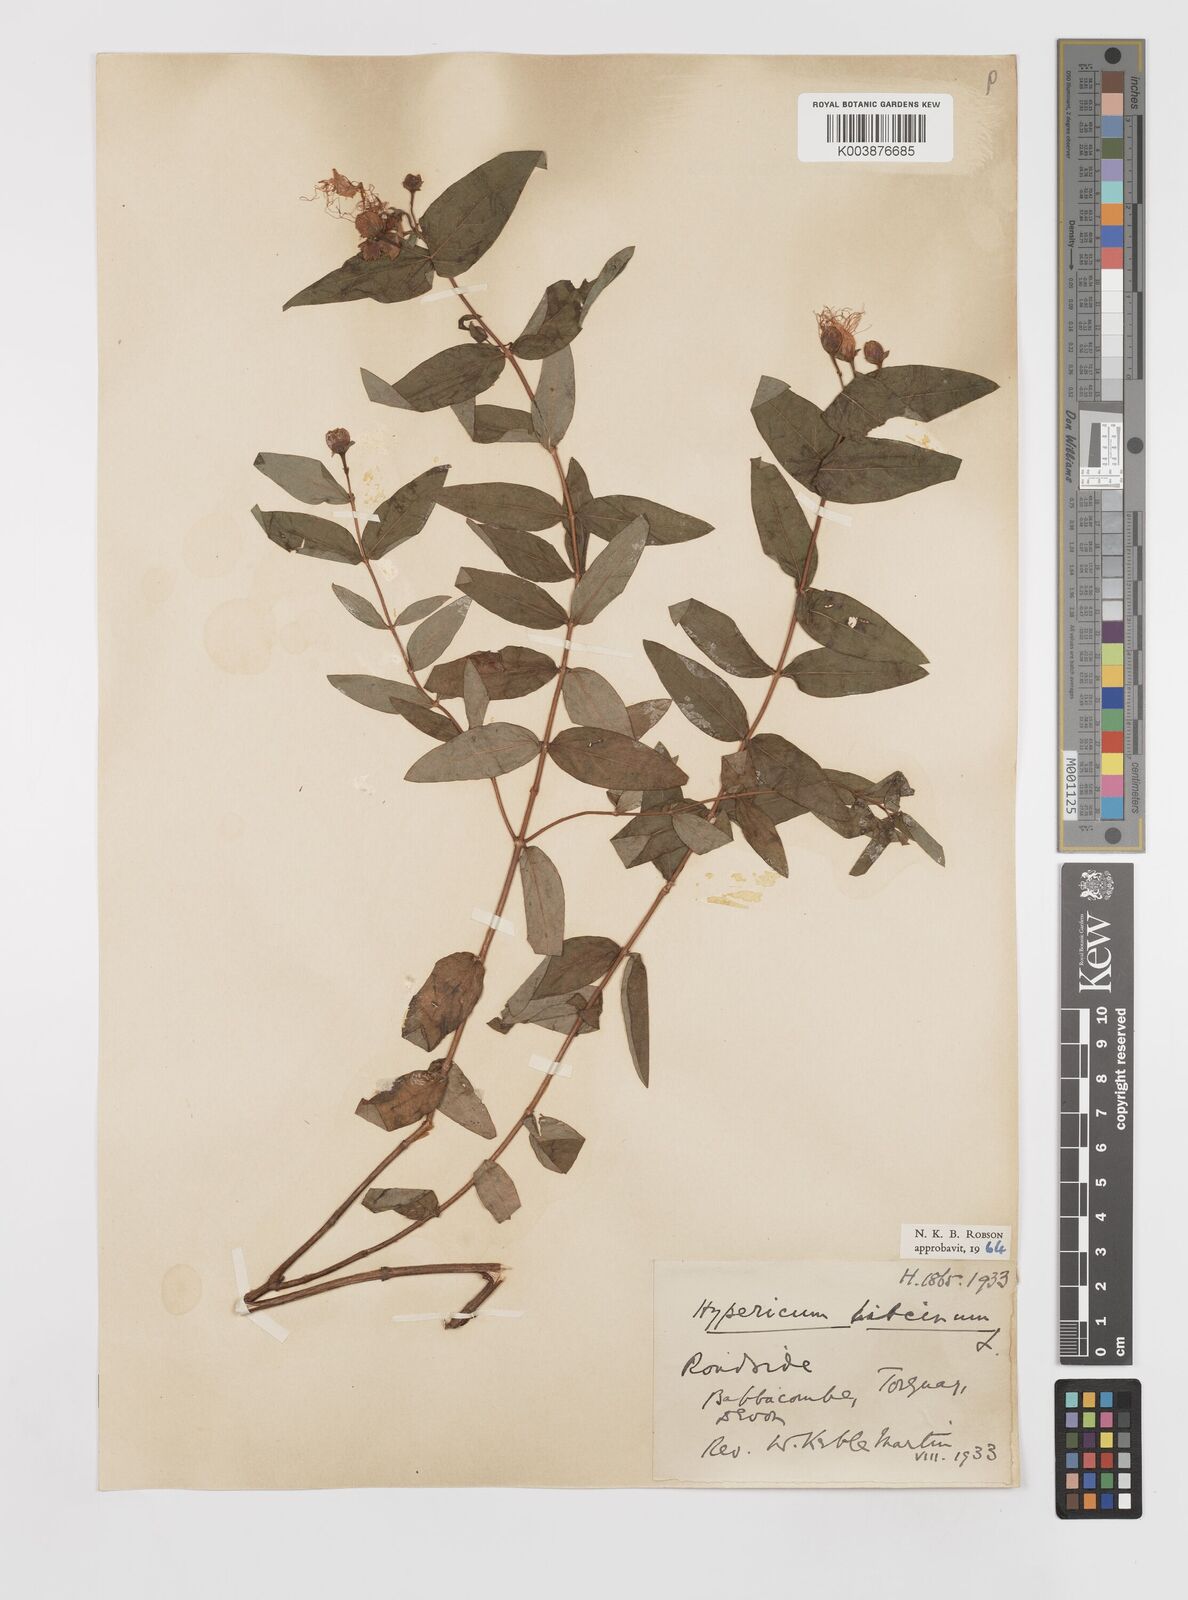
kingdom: Plantae
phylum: Tracheophyta
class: Magnoliopsida
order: Malpighiales
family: Hypericaceae
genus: Hypericum
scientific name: Hypericum hircinum
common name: Stinking tutsan
